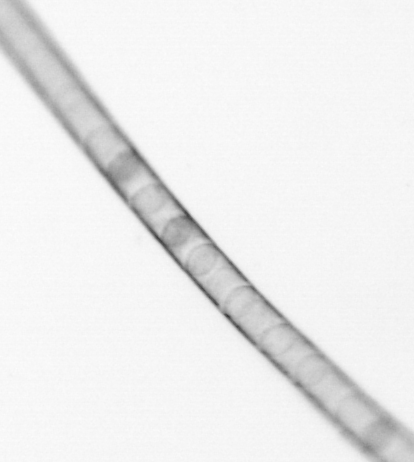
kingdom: Chromista
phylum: Ochrophyta
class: Bacillariophyceae
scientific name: Bacillariophyceae
